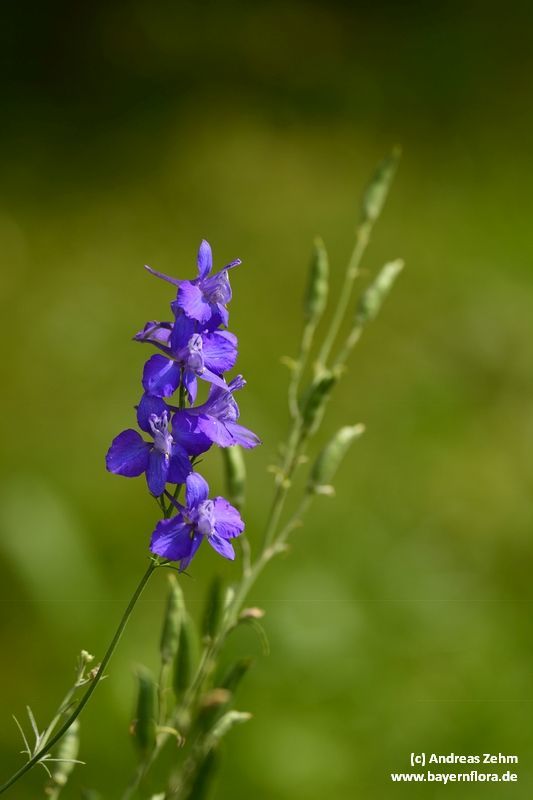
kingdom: Plantae
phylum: Tracheophyta
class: Magnoliopsida
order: Ranunculales
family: Ranunculaceae
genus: Delphinium
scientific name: Delphinium ajacis
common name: Doubtful knight's-spur
